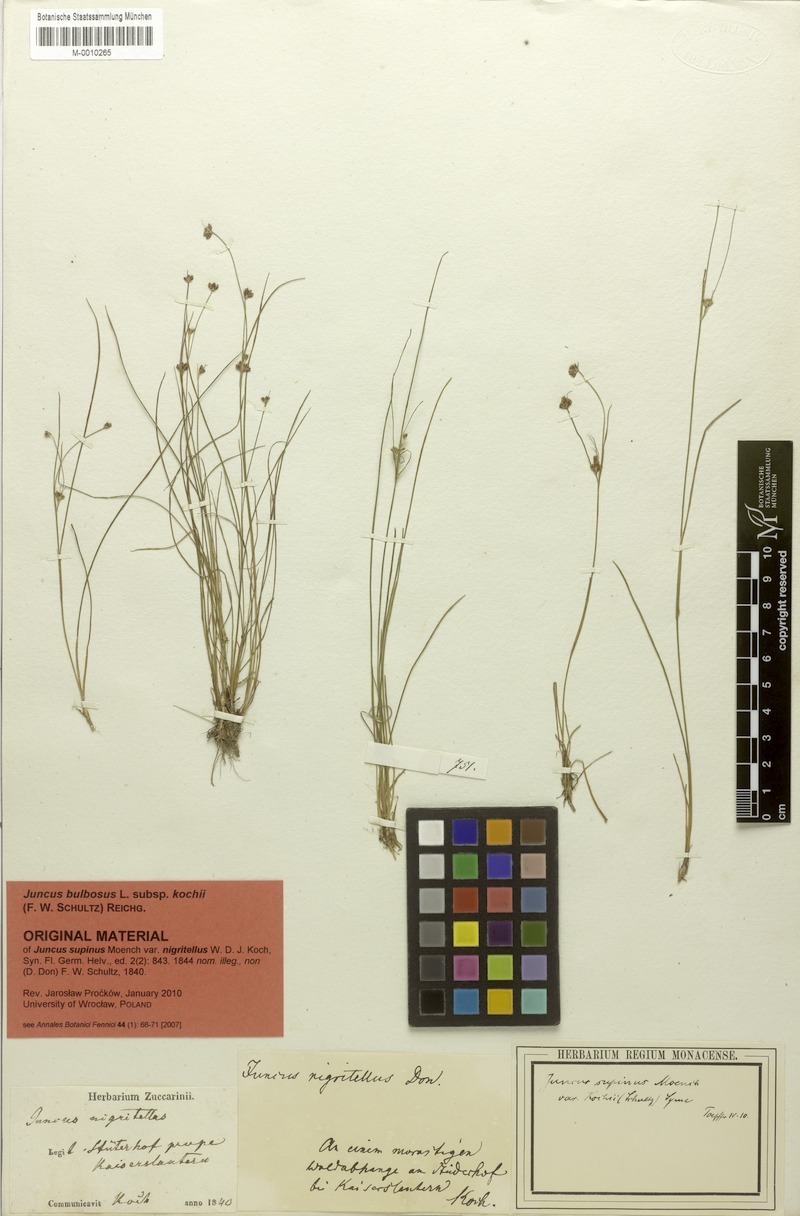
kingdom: Plantae
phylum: Tracheophyta
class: Liliopsida
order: Poales
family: Juncaceae
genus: Juncus
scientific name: Juncus bulbosus
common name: Bulbous rush
